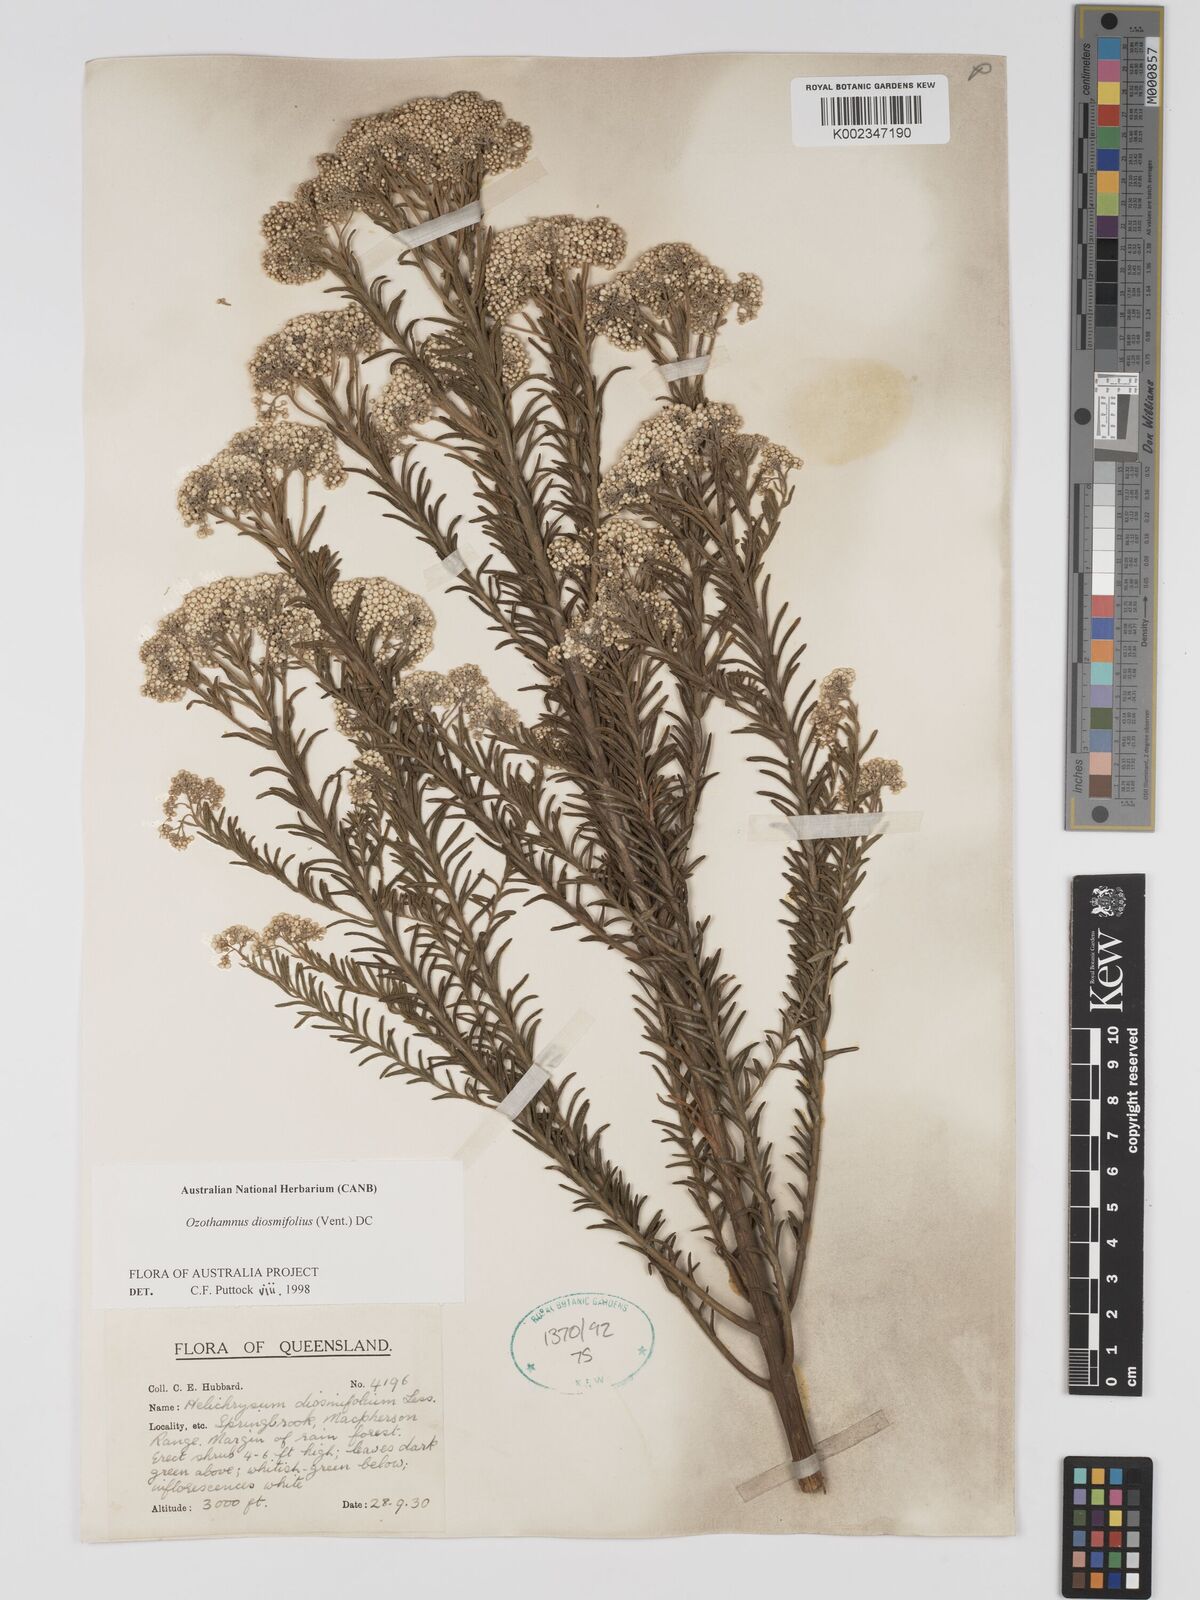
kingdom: Plantae
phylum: Tracheophyta
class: Magnoliopsida
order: Asterales
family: Asteraceae
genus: Ozothamnus
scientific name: Ozothamnus diosmifolius
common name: White-dogwood
